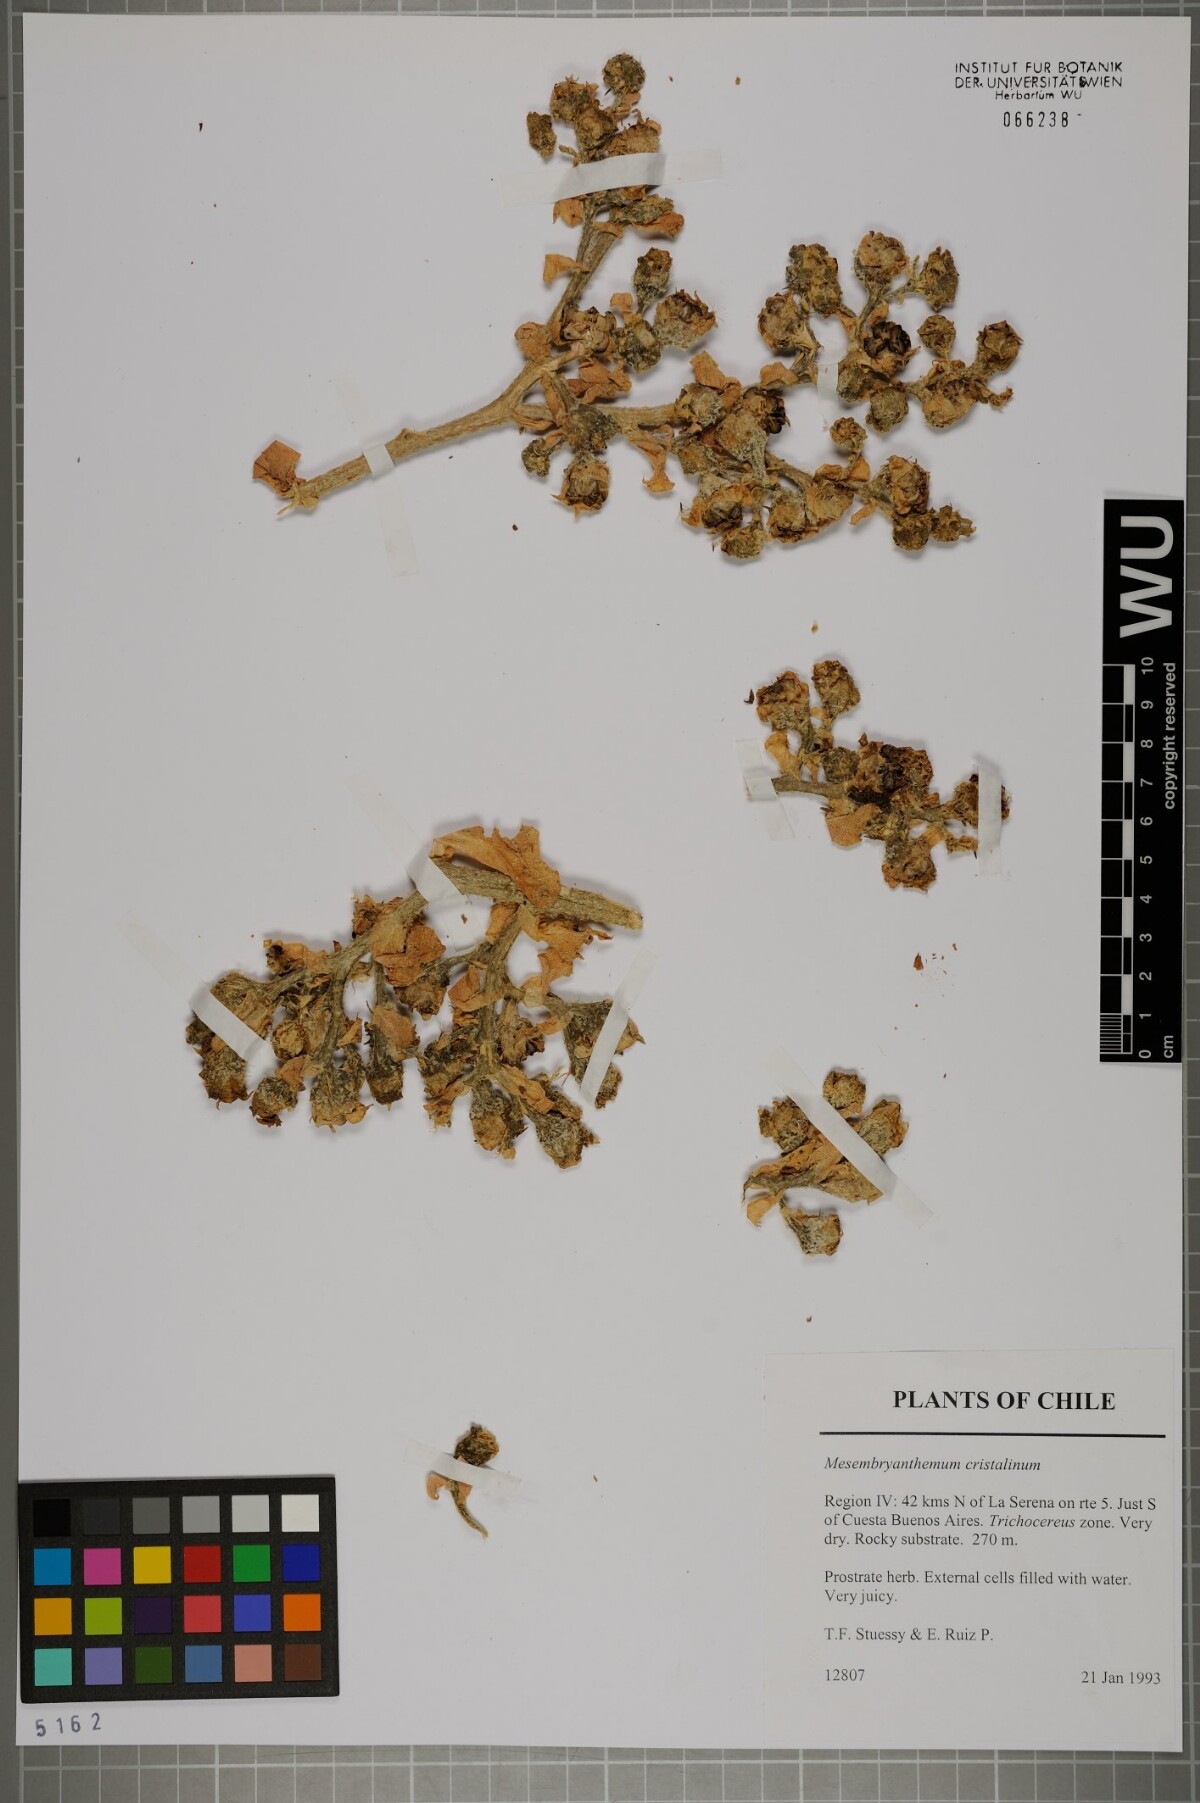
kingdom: Plantae
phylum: Tracheophyta
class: Magnoliopsida
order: Caryophyllales
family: Aizoaceae
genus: Mesembryanthemum
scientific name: Mesembryanthemum crystallinum
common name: Common iceplant
